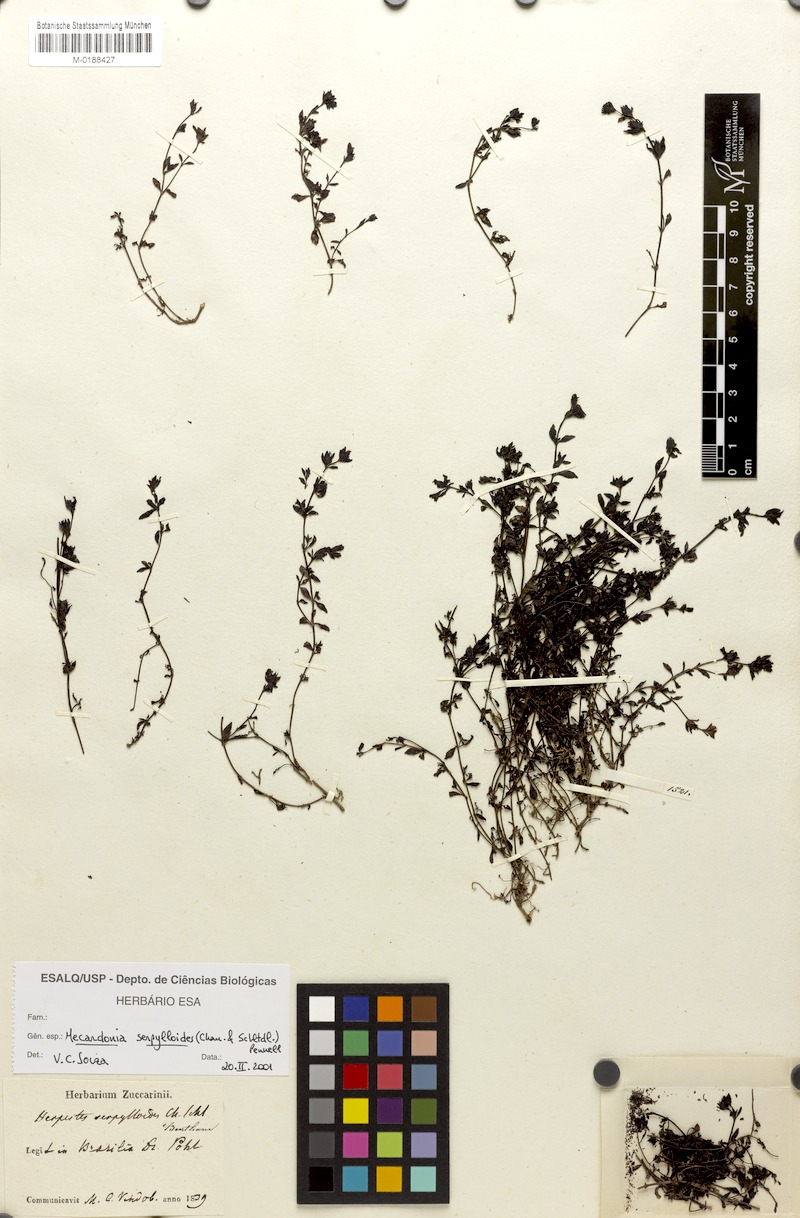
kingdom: Plantae
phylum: Tracheophyta
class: Magnoliopsida
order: Lamiales
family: Plantaginaceae
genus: Mecardonia
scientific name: Mecardonia serpylloides
